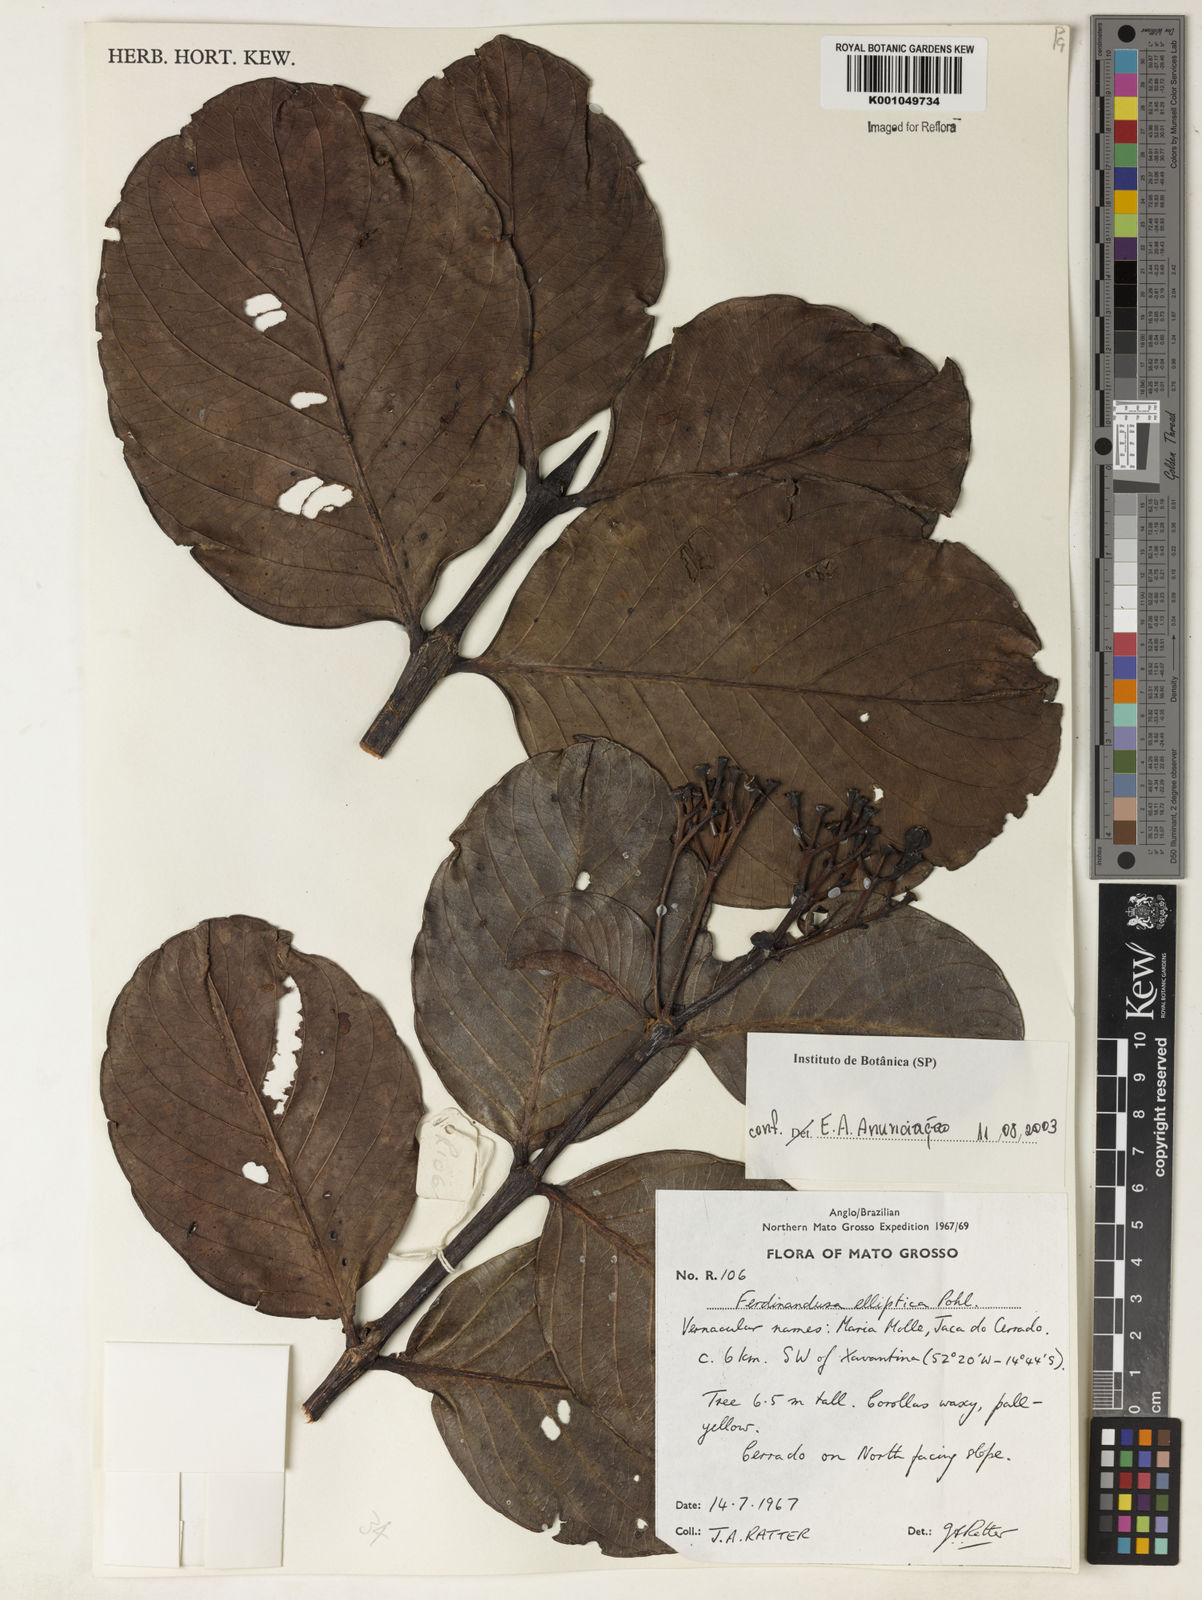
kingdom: Plantae
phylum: Tracheophyta
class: Magnoliopsida
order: Gentianales
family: Rubiaceae
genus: Ferdinandusa
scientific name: Ferdinandusa elliptica
